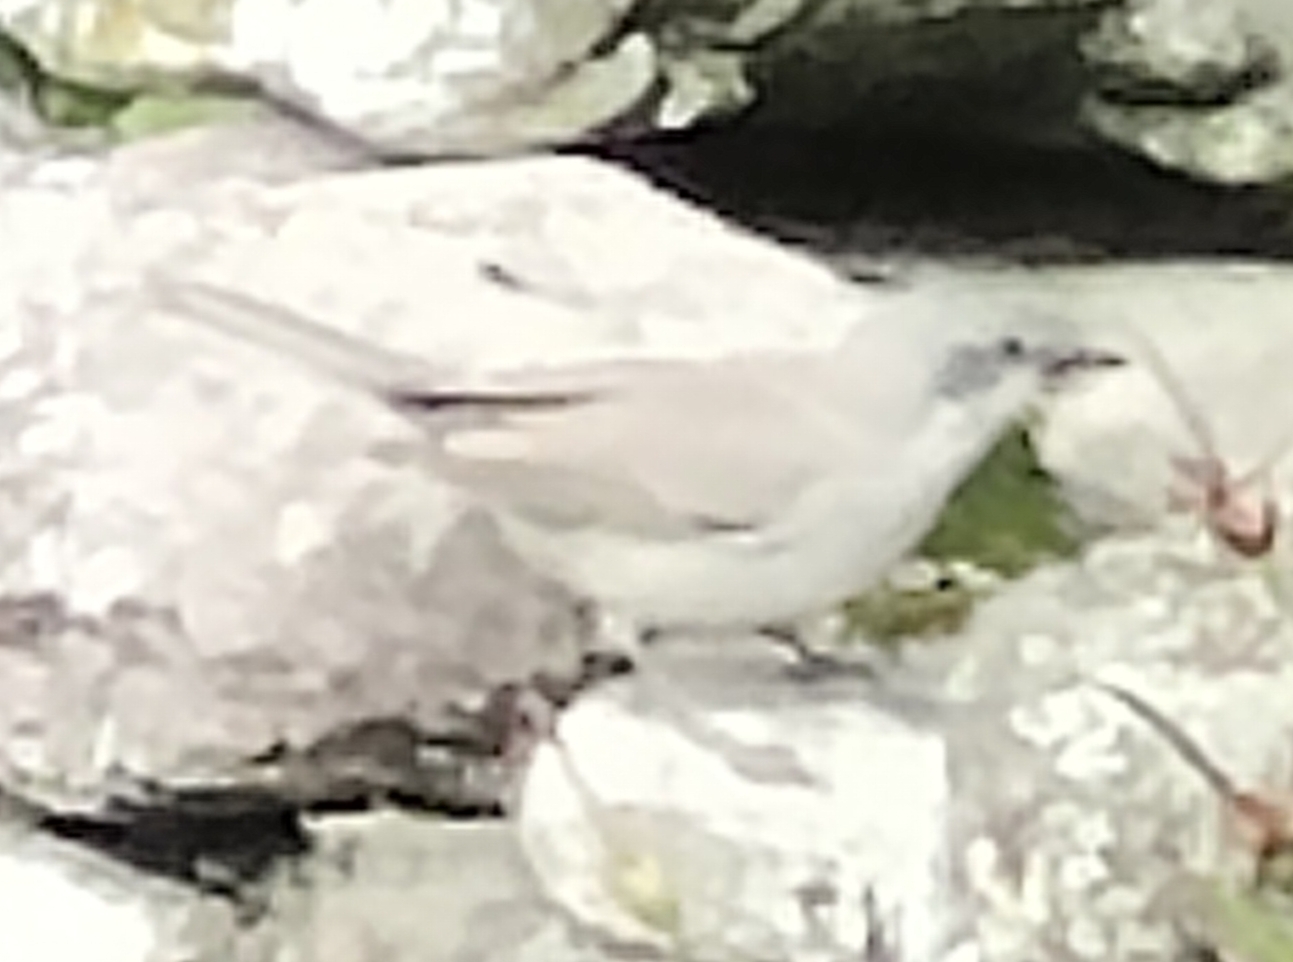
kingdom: Animalia
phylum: Chordata
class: Aves
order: Passeriformes
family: Sylviidae
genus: Sylvia
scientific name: Sylvia curruca
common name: Gærdesanger
